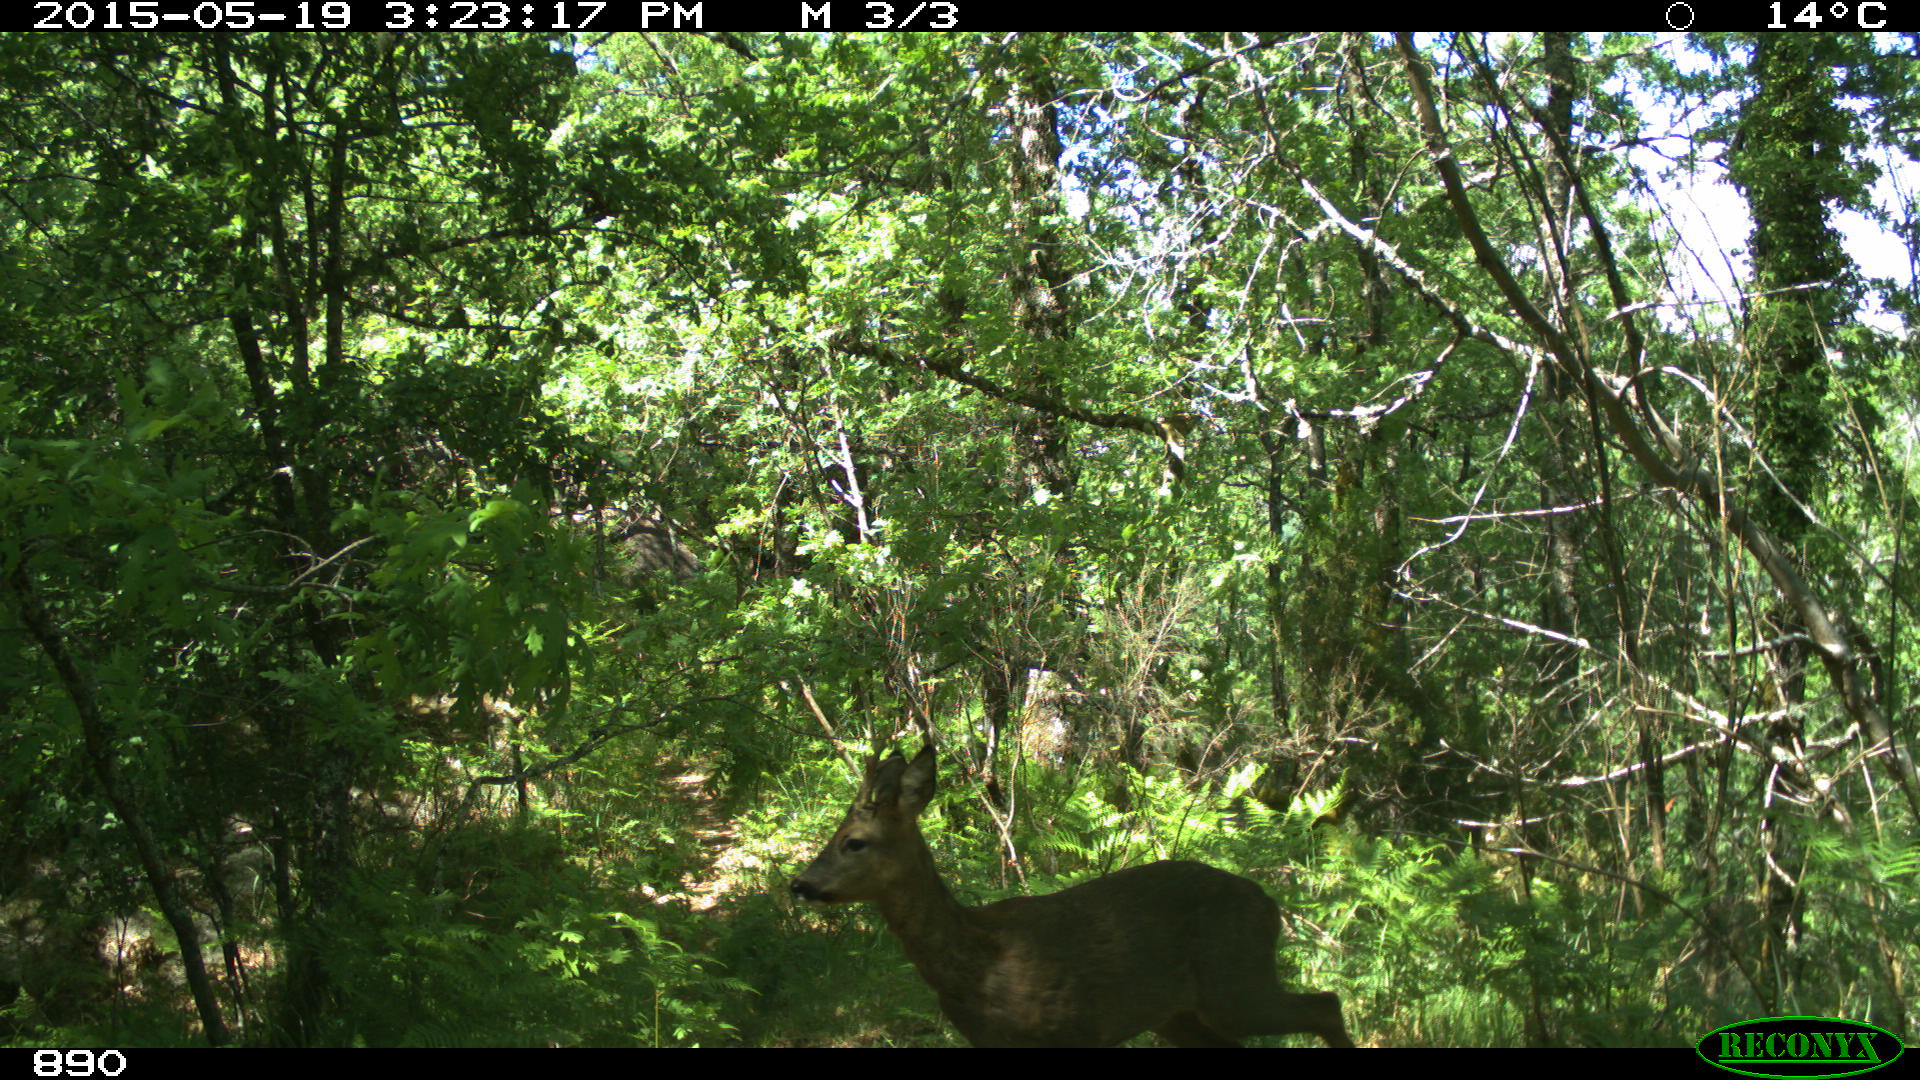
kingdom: Animalia
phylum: Chordata
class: Mammalia
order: Artiodactyla
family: Cervidae
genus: Capreolus
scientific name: Capreolus capreolus
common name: Western roe deer
